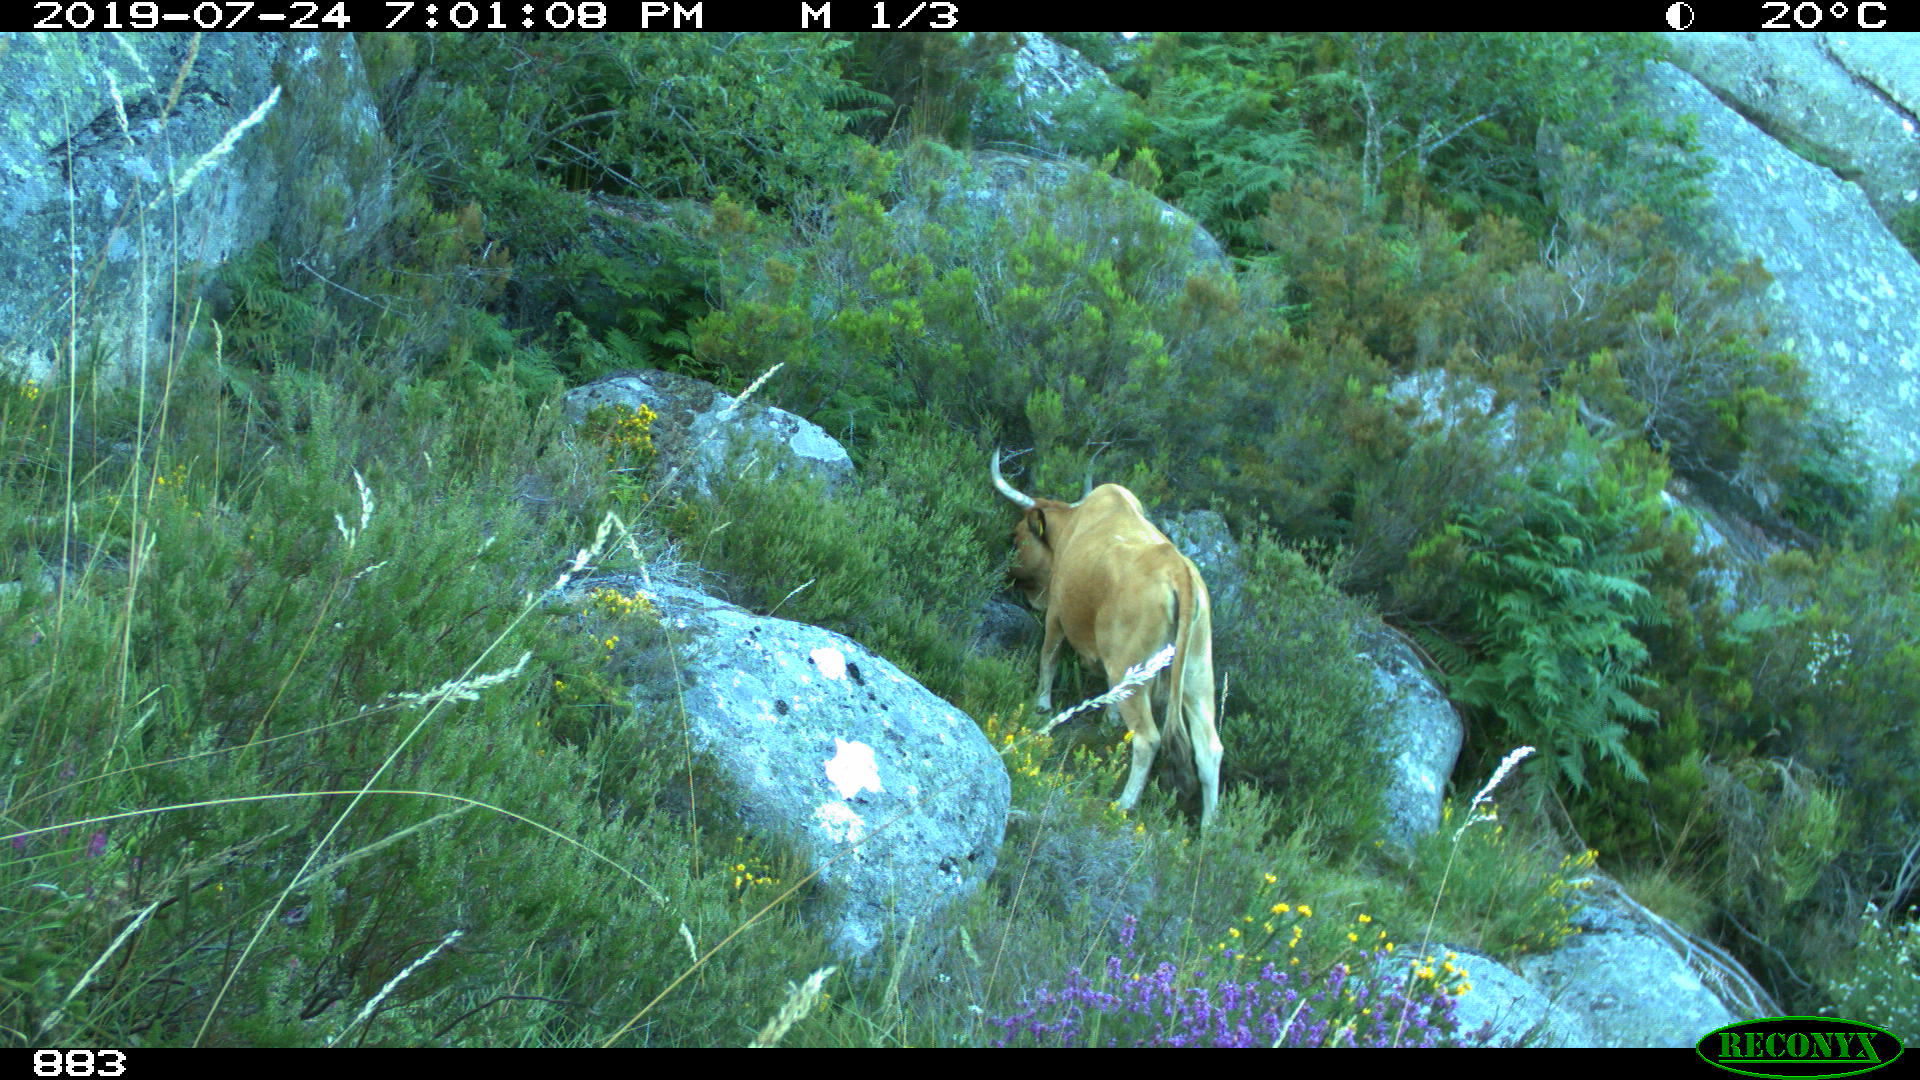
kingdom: Animalia
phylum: Chordata
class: Mammalia
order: Artiodactyla
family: Bovidae
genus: Bos
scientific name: Bos taurus
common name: Domesticated cattle
